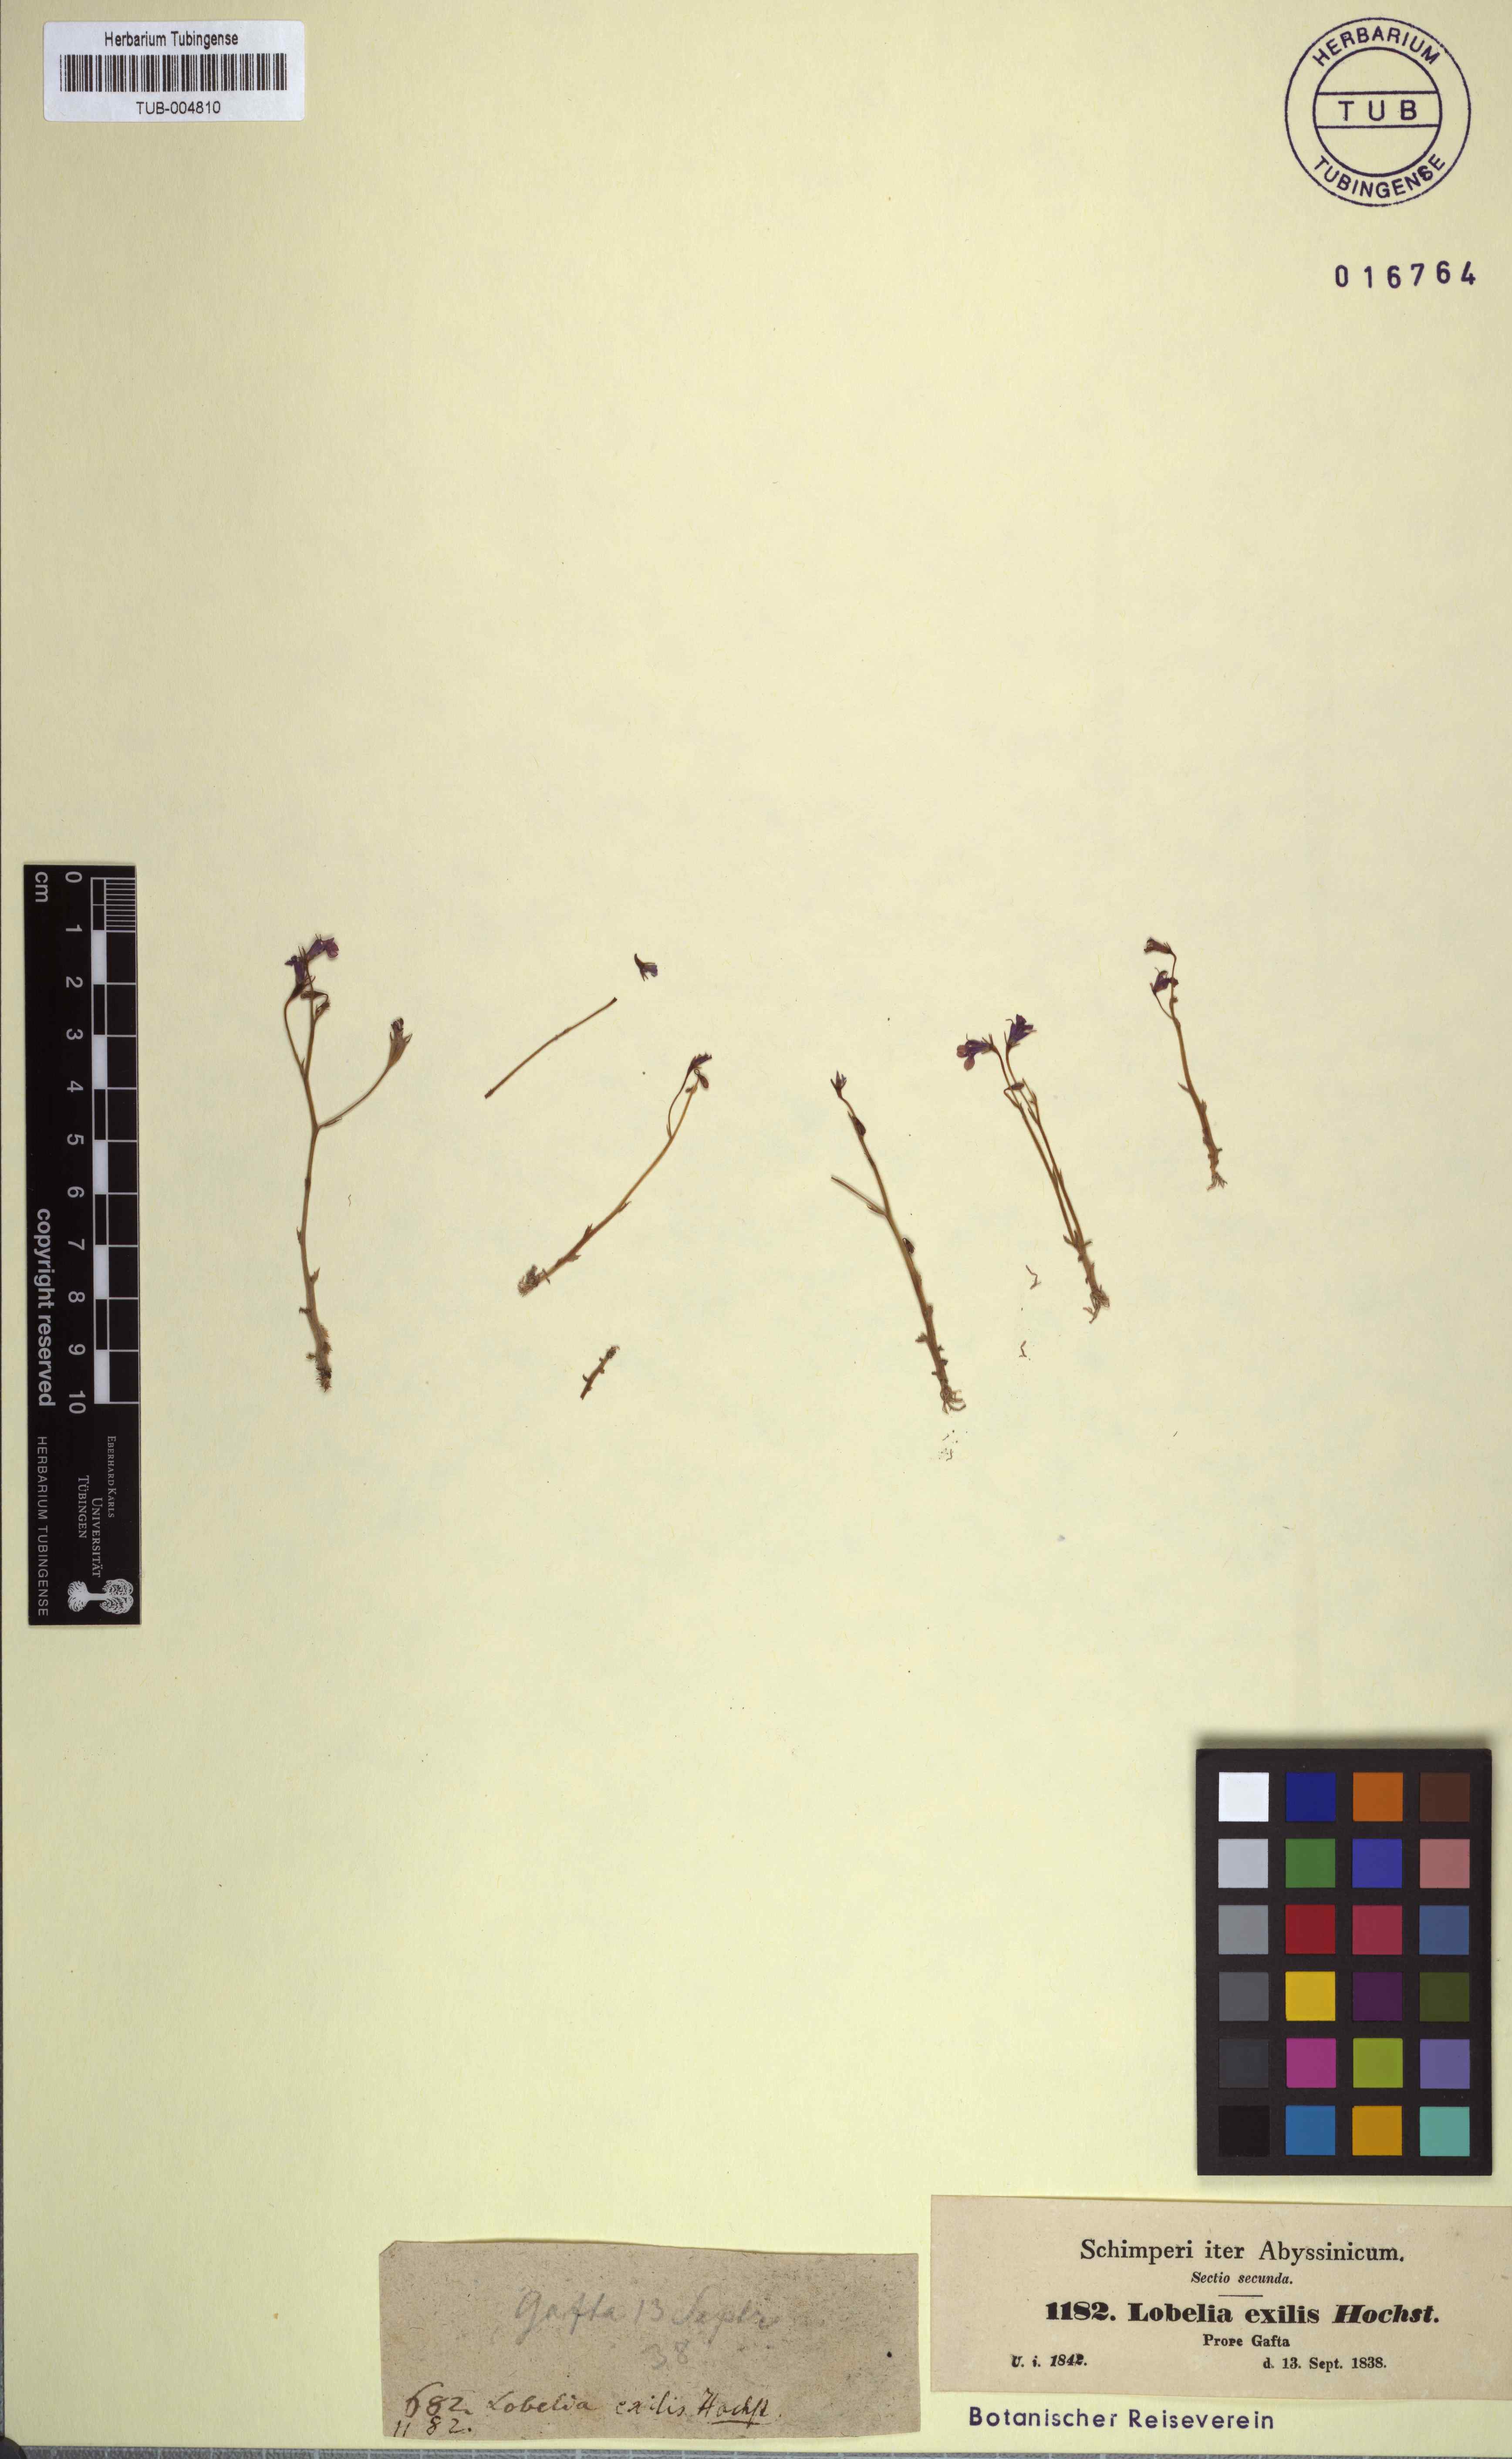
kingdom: Plantae
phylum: Tracheophyta
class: Magnoliopsida
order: Asterales
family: Campanulaceae
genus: Lobelia
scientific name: Lobelia exilis
